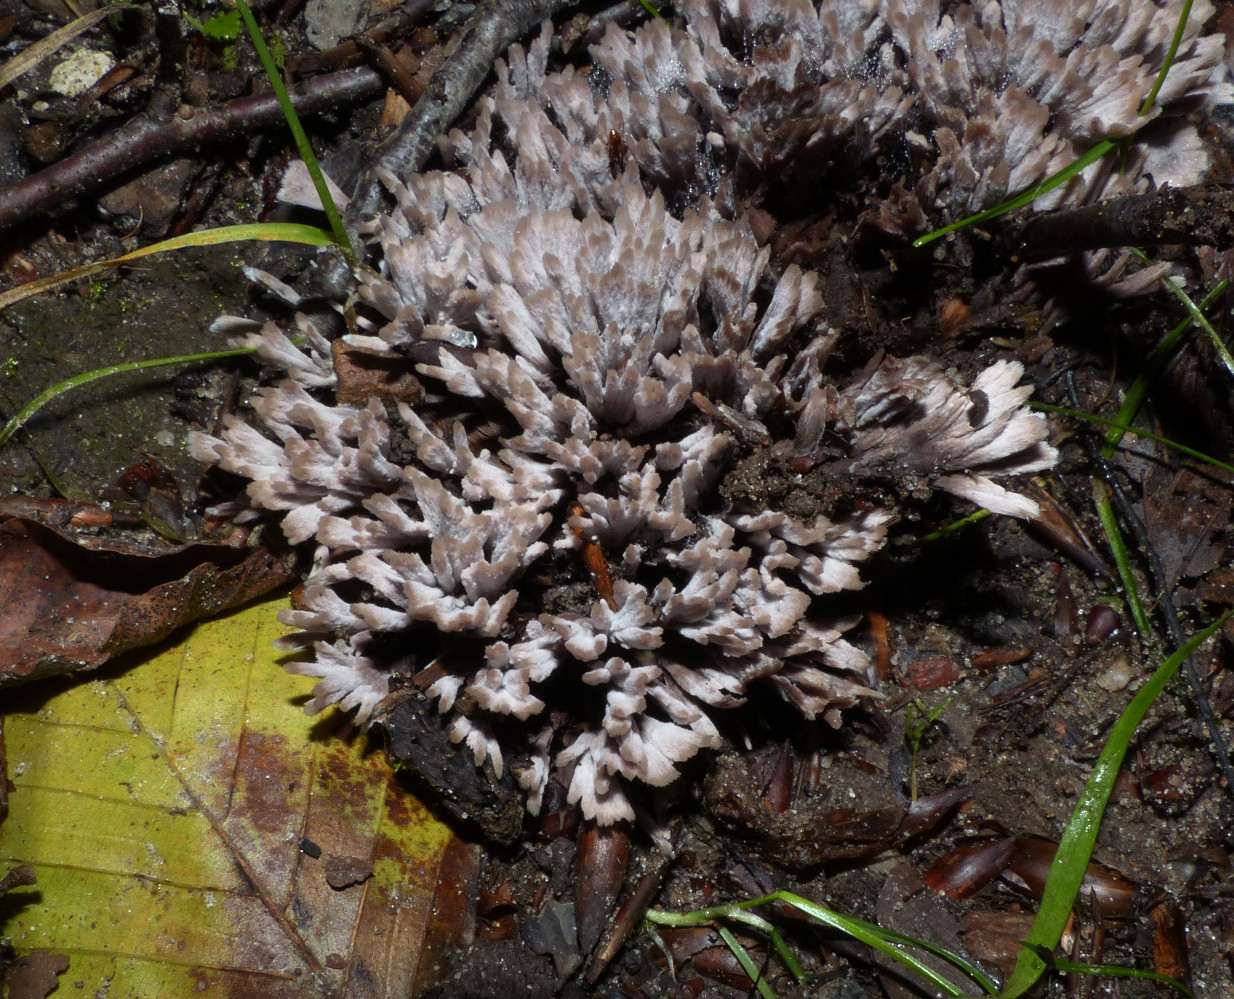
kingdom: Fungi
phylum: Basidiomycota
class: Agaricomycetes
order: Thelephorales
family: Thelephoraceae
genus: Thelephora
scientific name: Thelephora anthocephala
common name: busk-frynsesvamp
